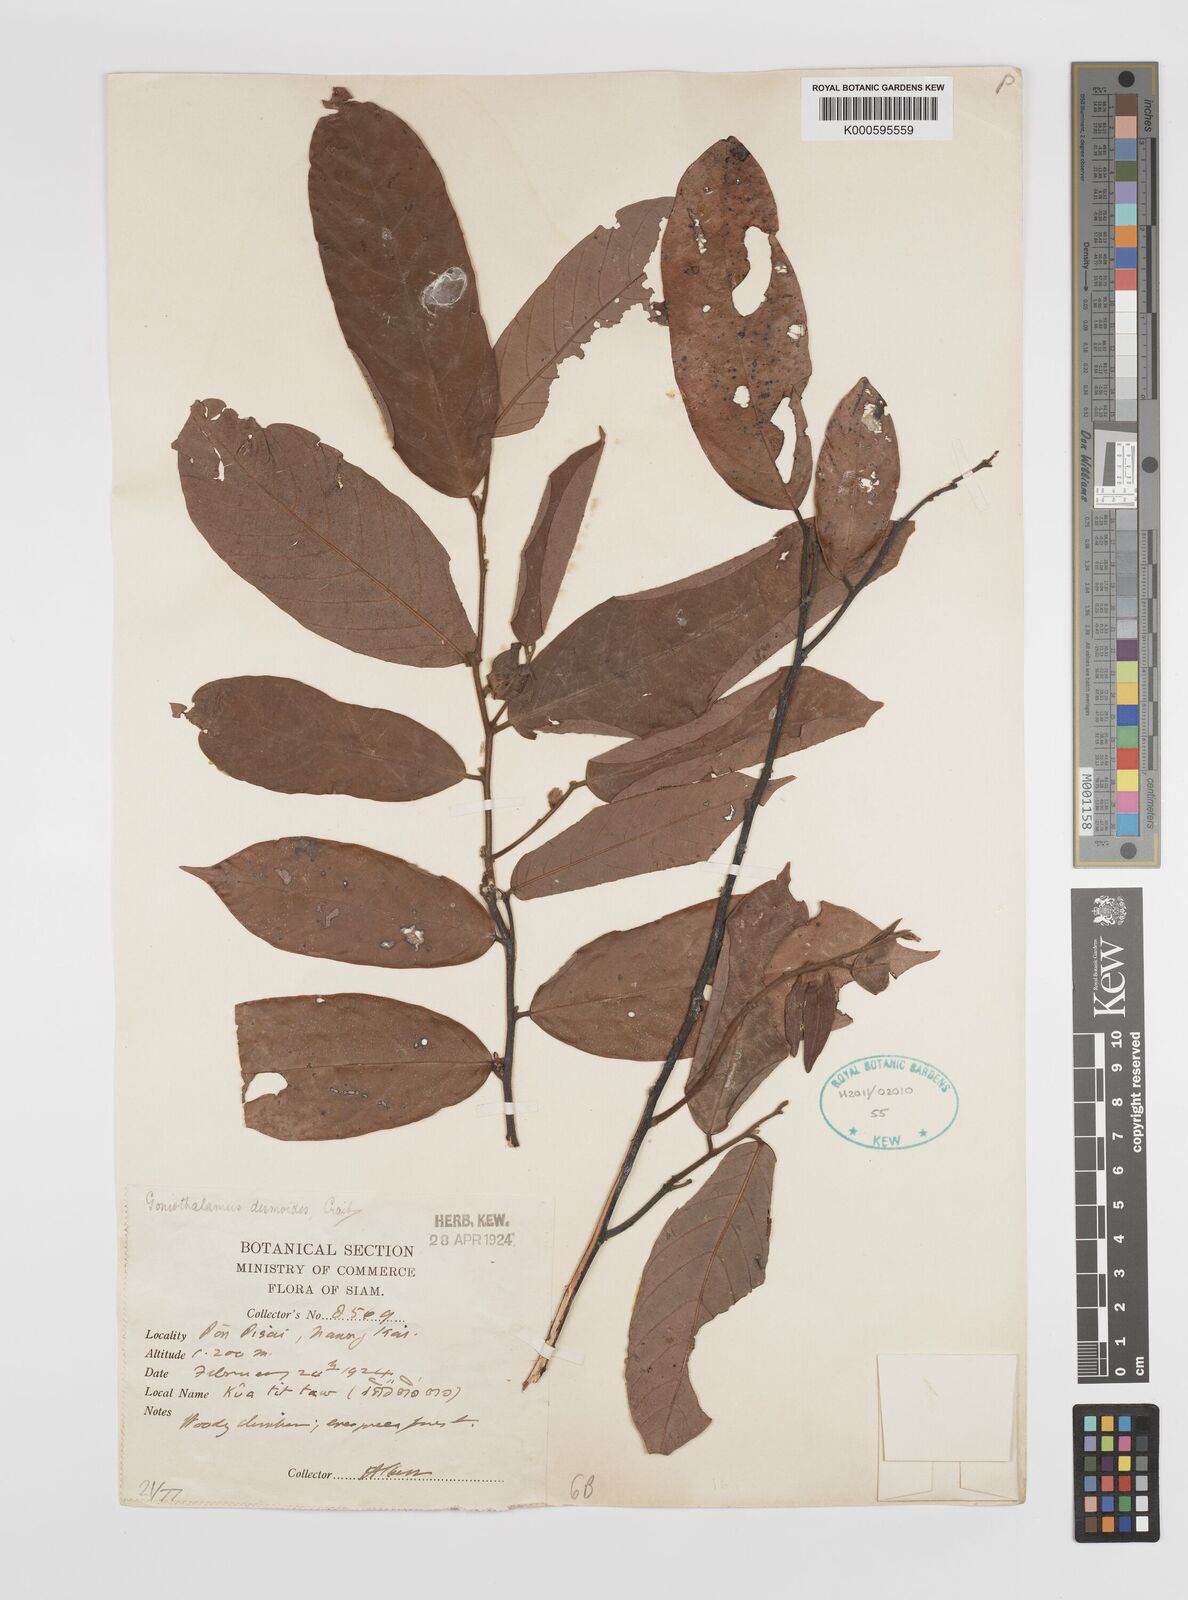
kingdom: Plantae
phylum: Tracheophyta
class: Magnoliopsida
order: Magnoliales
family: Annonaceae
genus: Friesodielsia
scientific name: Friesodielsia desmoides
